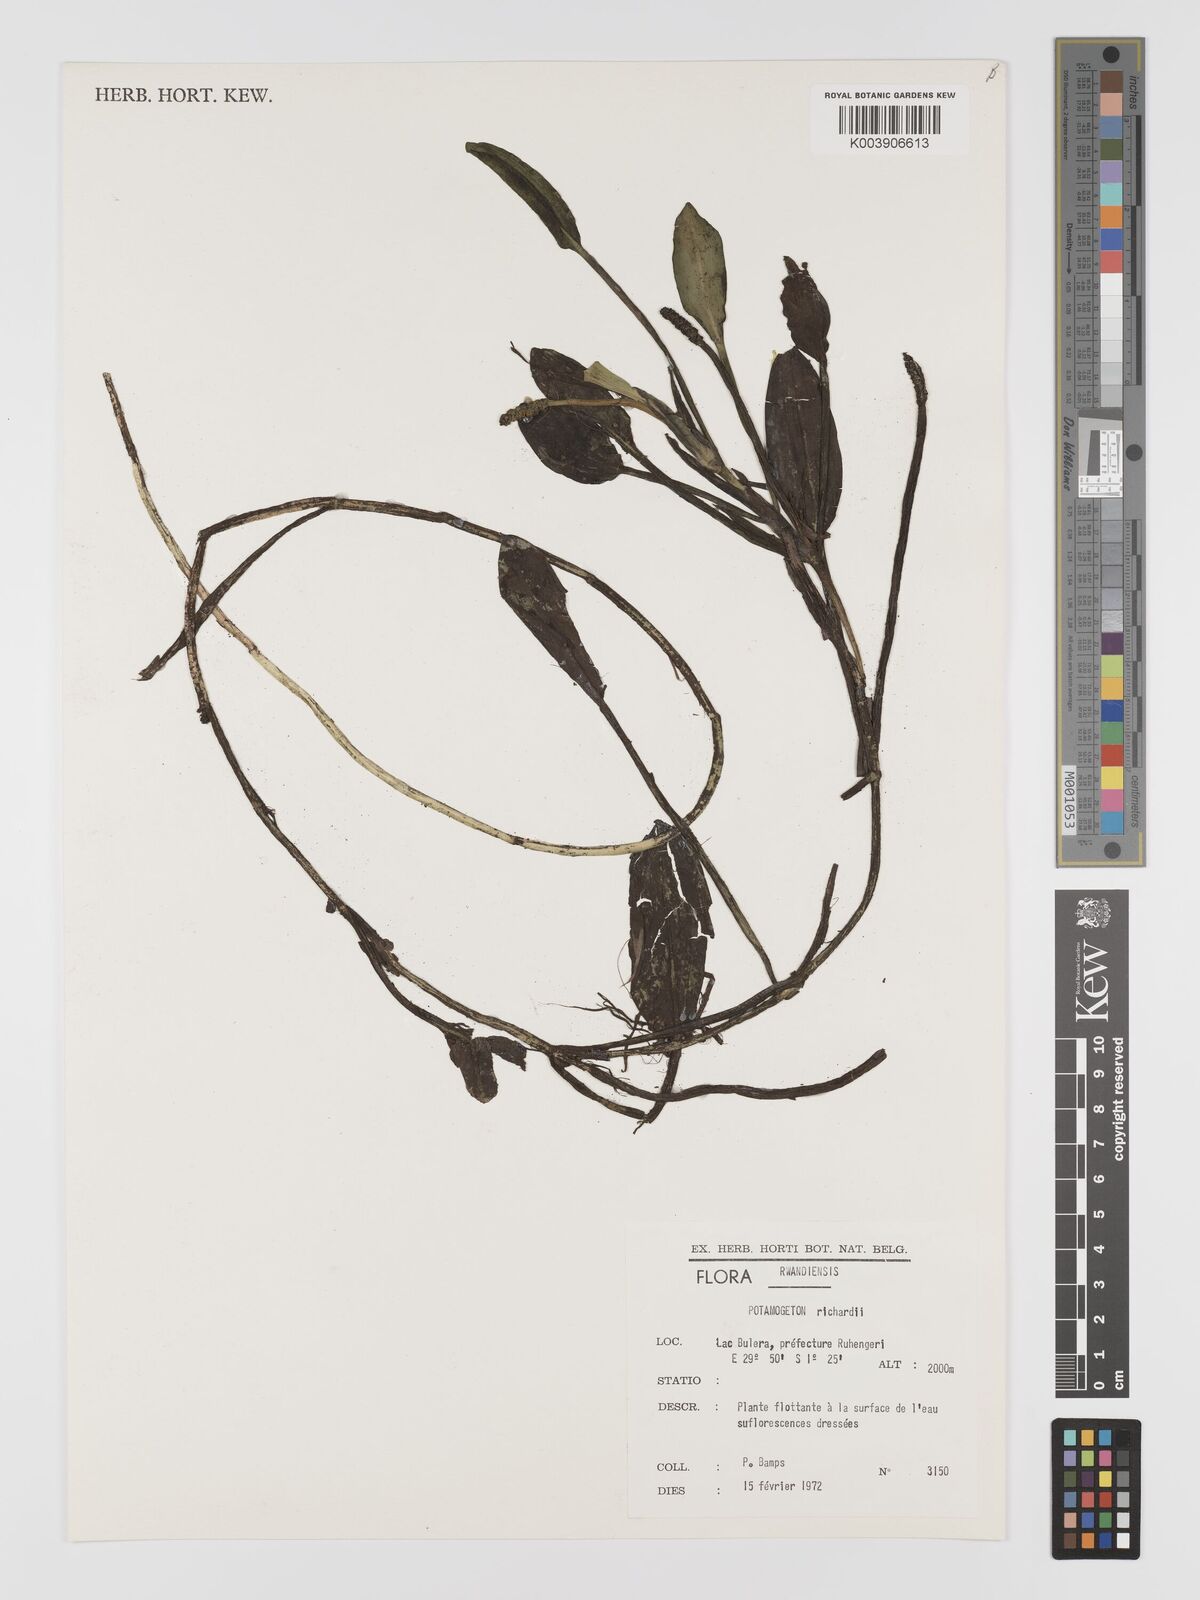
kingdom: Plantae
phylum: Tracheophyta
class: Liliopsida
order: Alismatales
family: Potamogetonaceae
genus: Potamogeton
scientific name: Potamogeton nodosus
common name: Loddon pondweed
